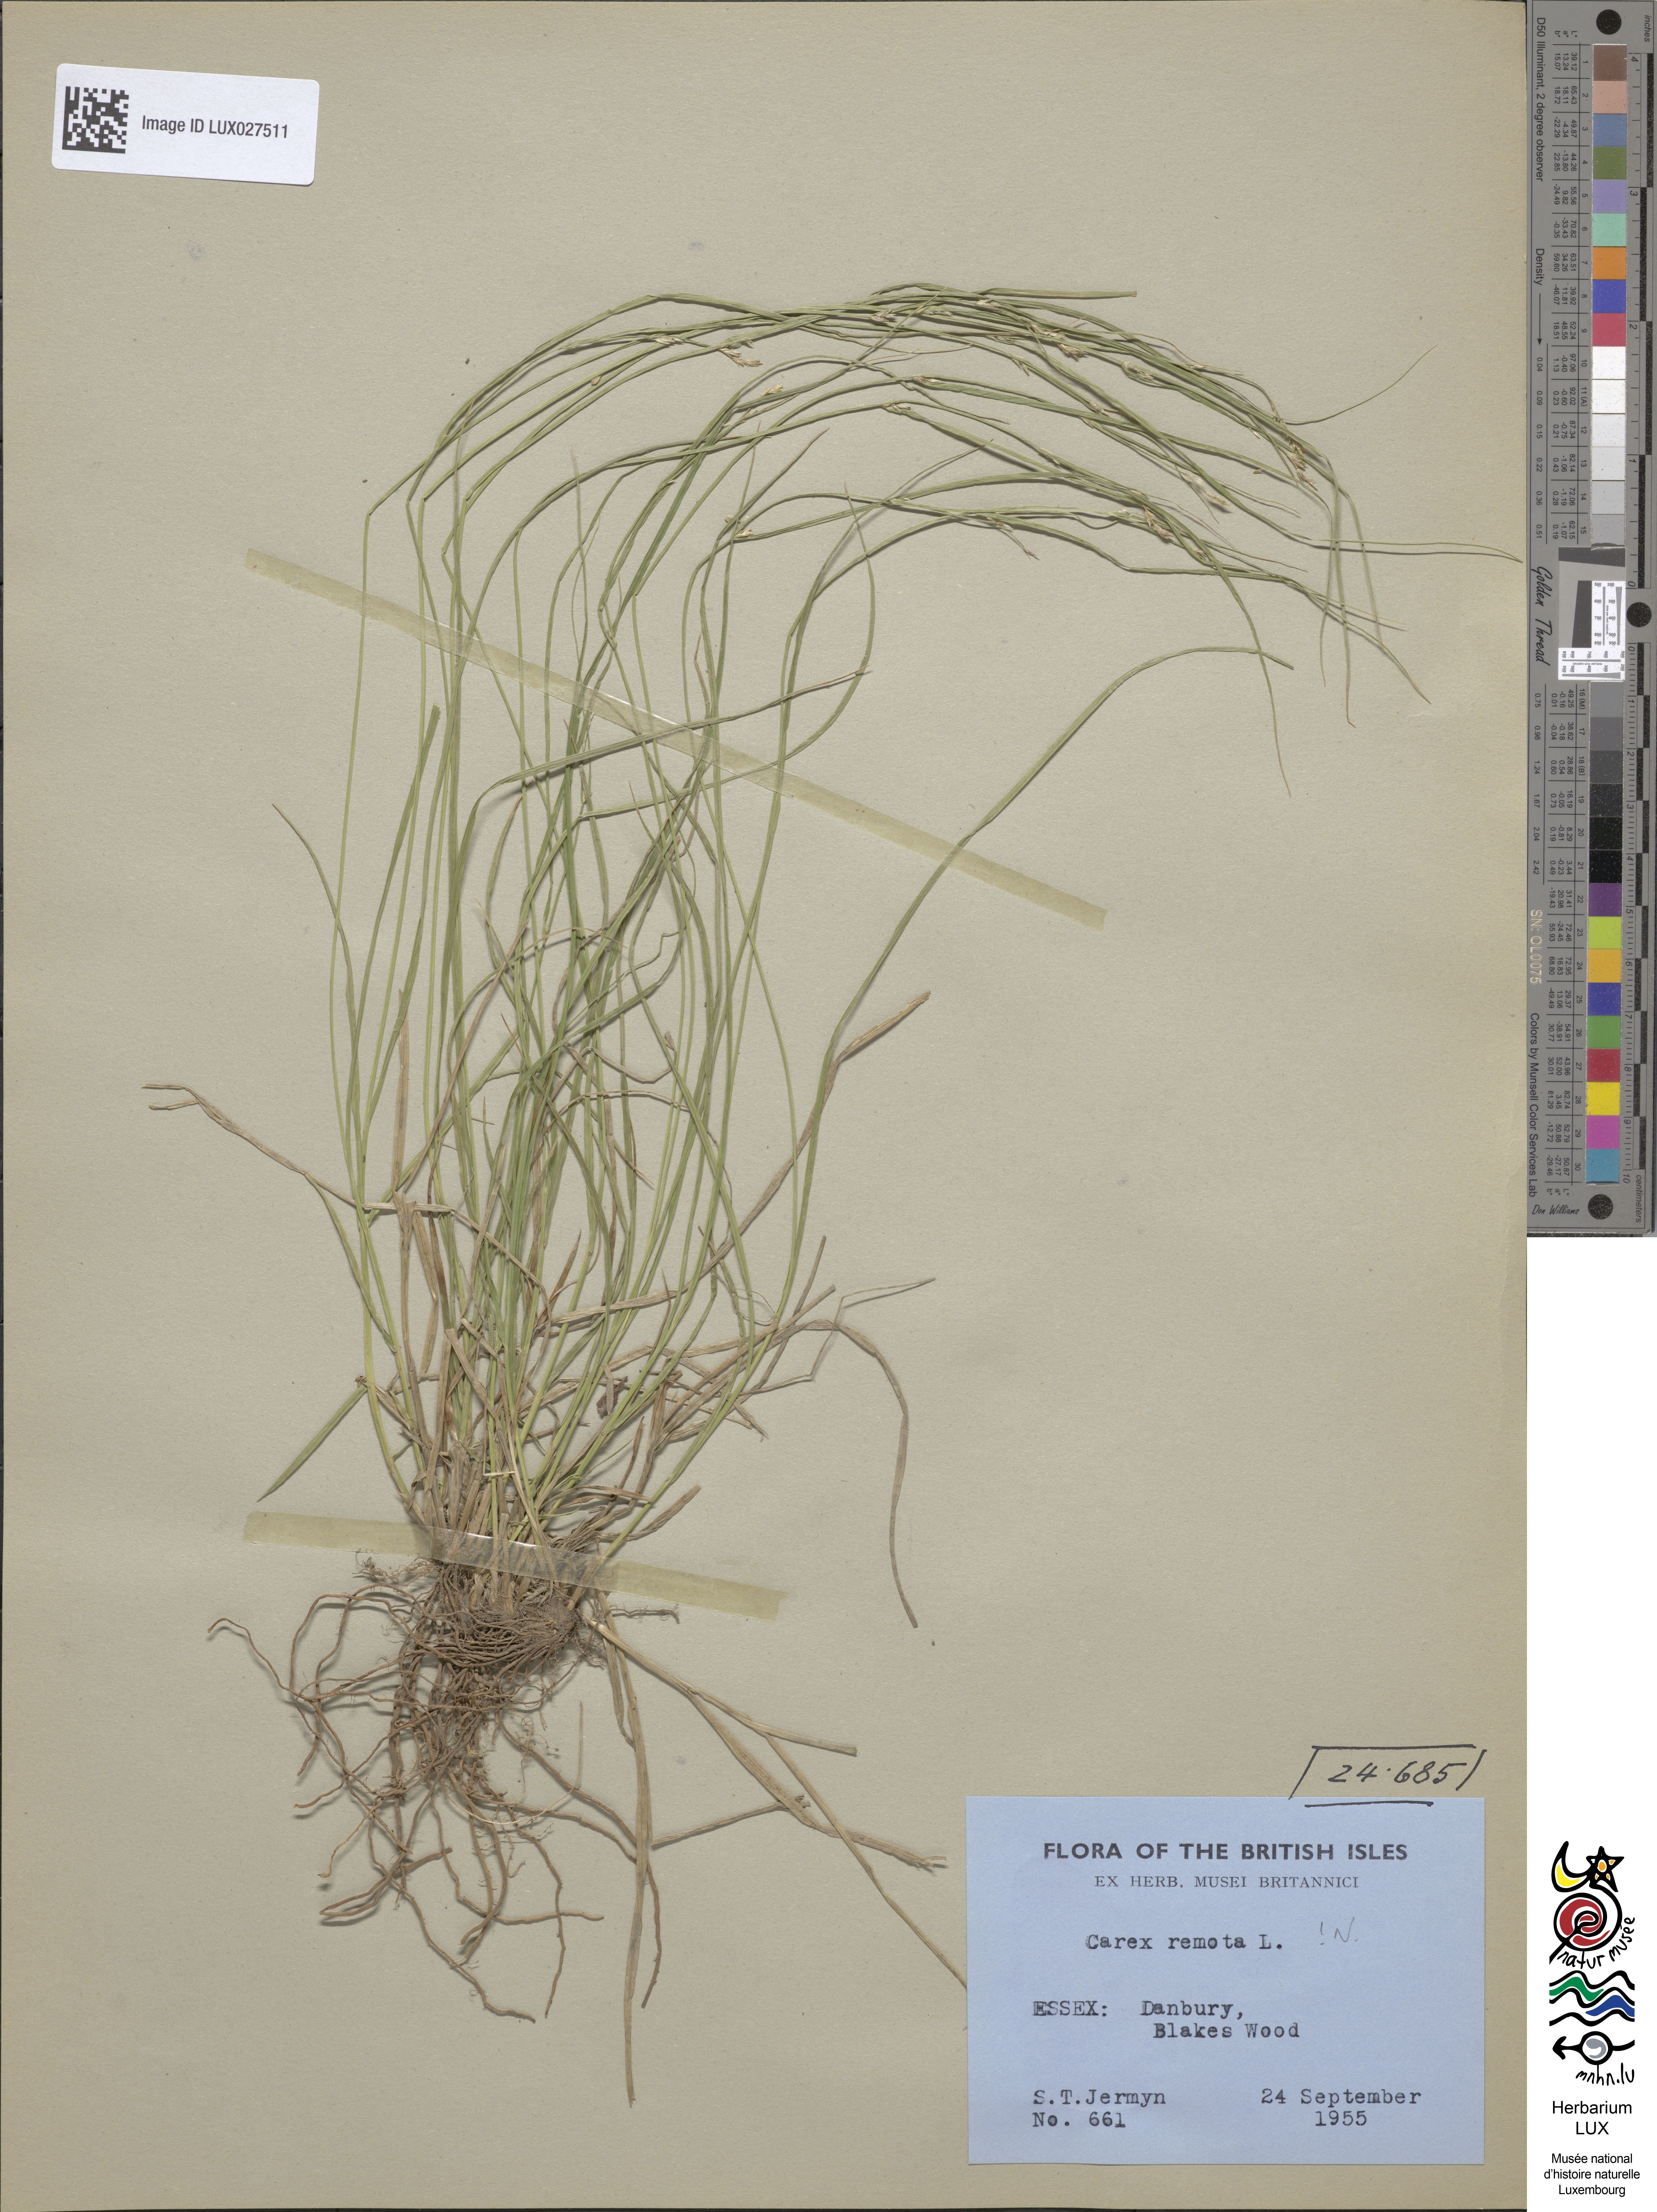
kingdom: Plantae
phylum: Tracheophyta
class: Liliopsida
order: Poales
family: Cyperaceae
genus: Carex
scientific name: Carex remota
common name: Remote sedge
